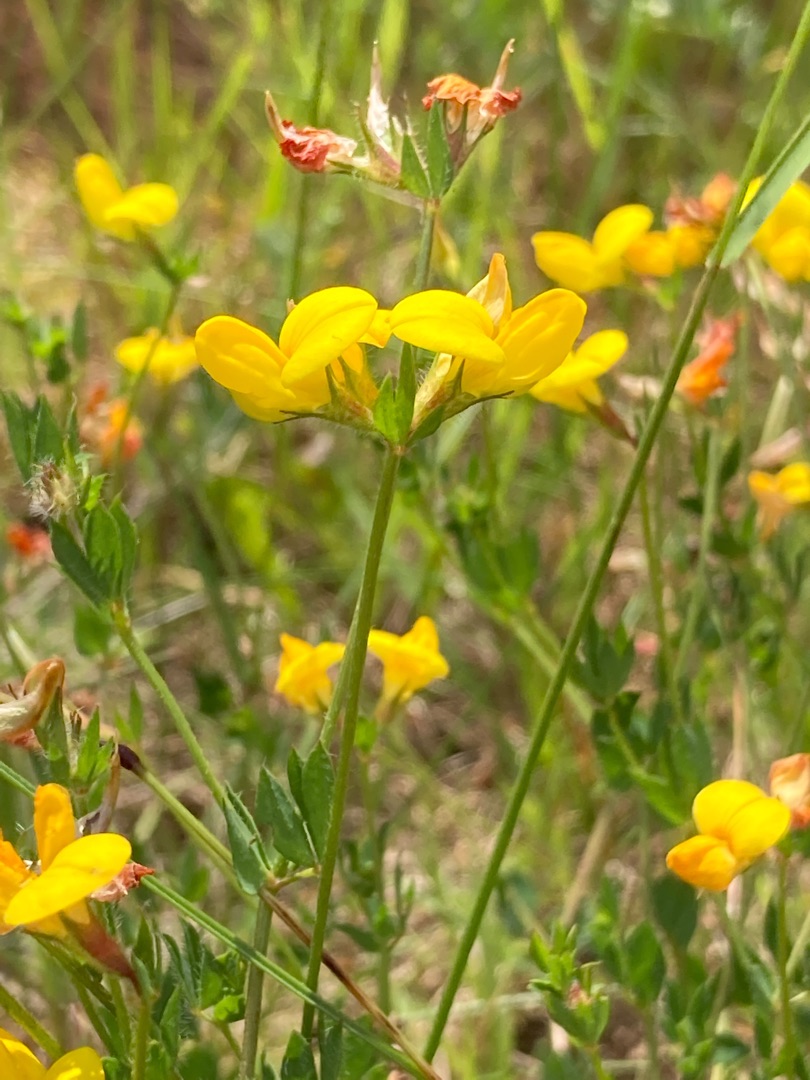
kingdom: Plantae
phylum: Tracheophyta
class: Magnoliopsida
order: Fabales
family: Fabaceae
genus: Lotus
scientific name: Lotus corniculatus
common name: Almindelig kællingetand
